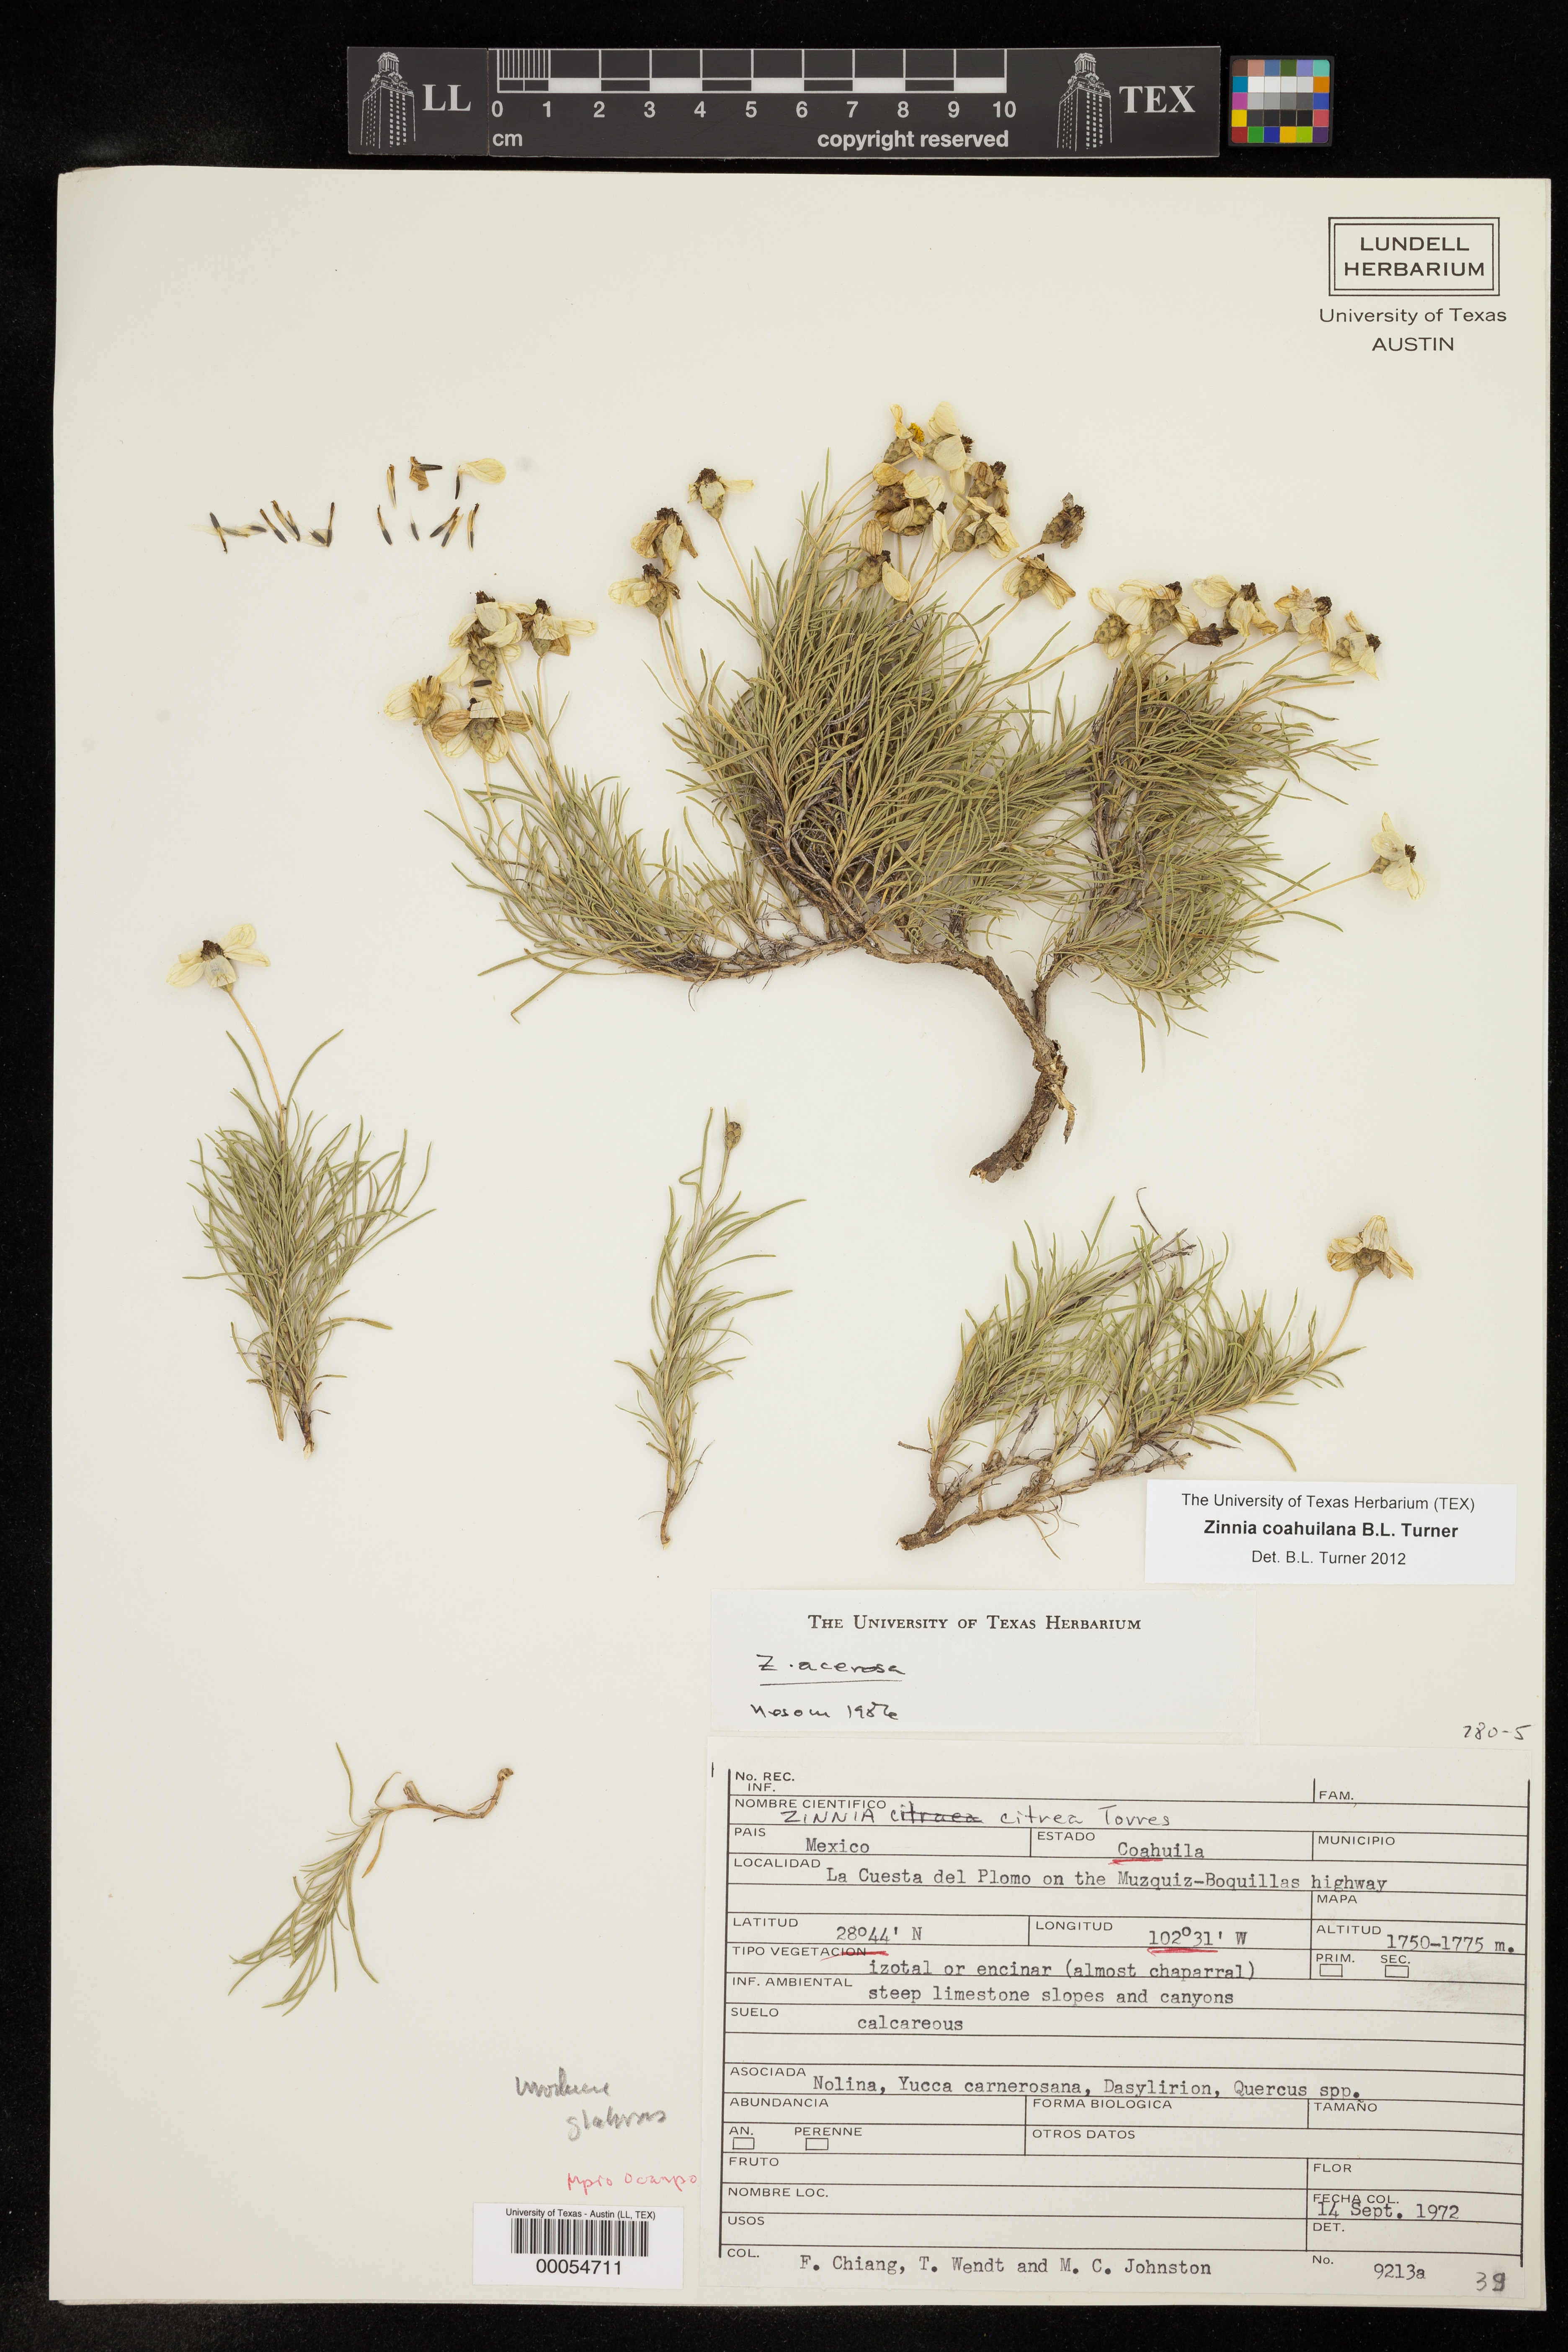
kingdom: Plantae
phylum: Tracheophyta
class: Magnoliopsida
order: Asterales
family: Asteraceae
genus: Zinnia
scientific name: Zinnia acerosa
